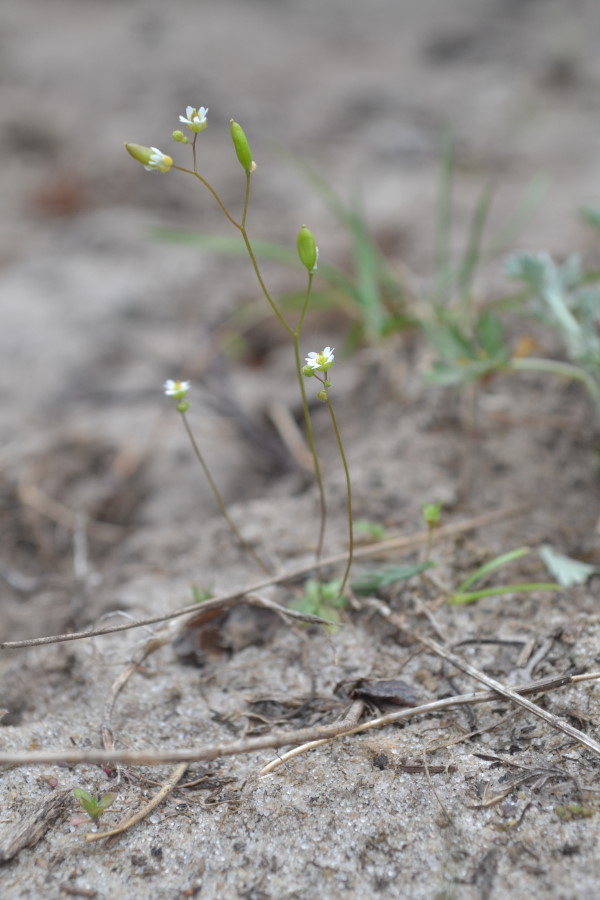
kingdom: Plantae
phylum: Tracheophyta
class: Magnoliopsida
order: Brassicales
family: Brassicaceae
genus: Draba
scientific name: Draba verna
